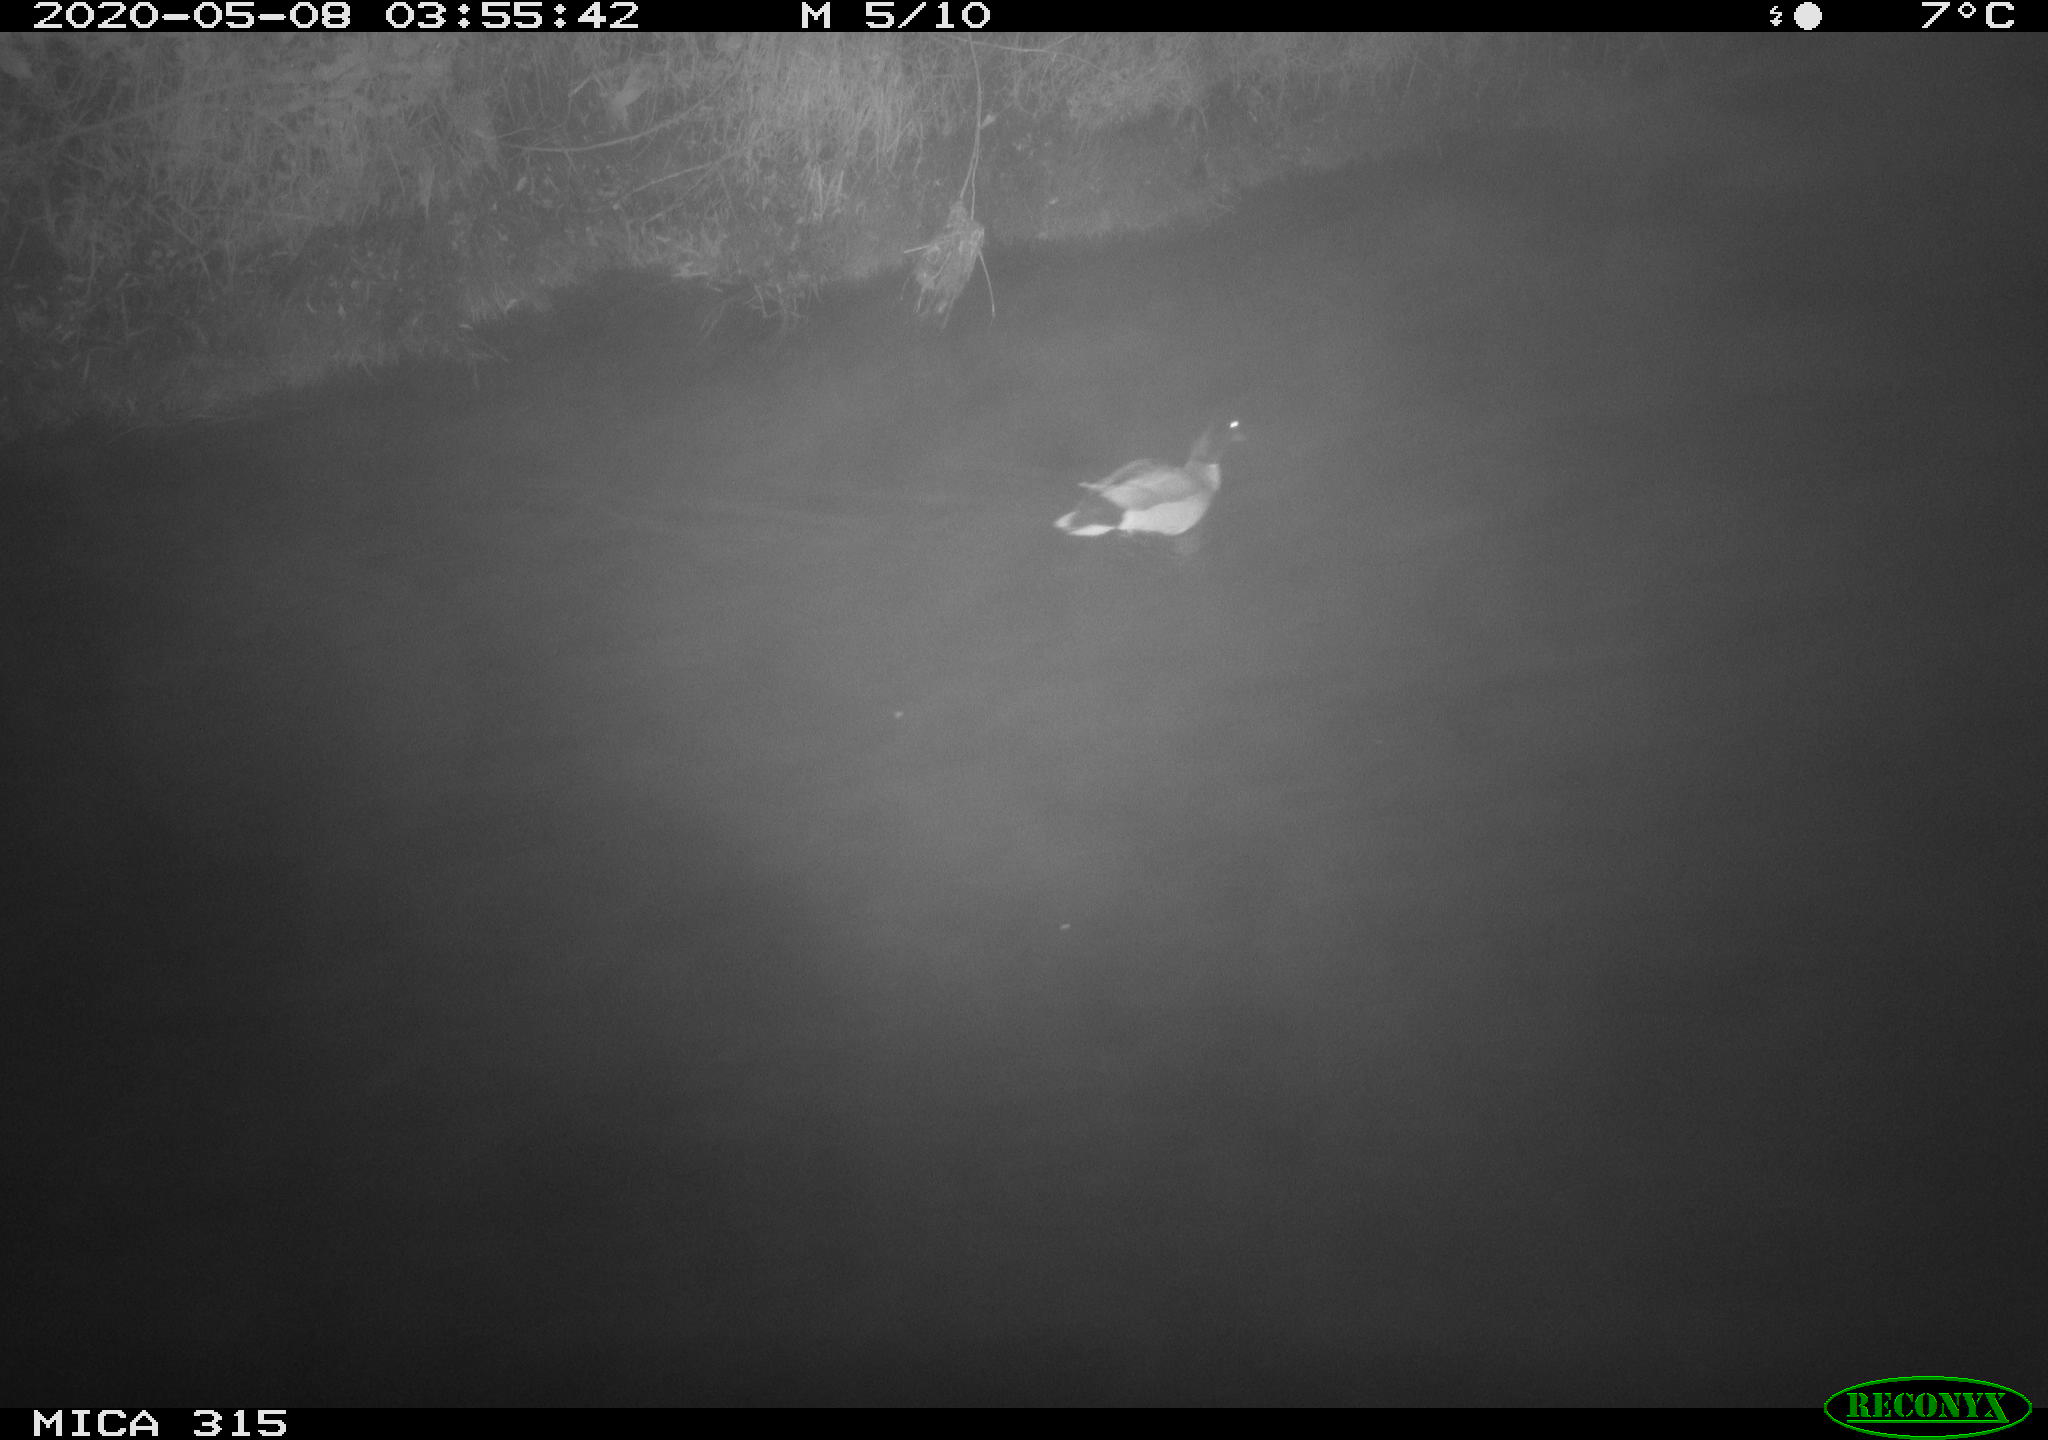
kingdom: Animalia
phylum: Chordata
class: Aves
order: Anseriformes
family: Anatidae
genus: Anas
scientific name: Anas platyrhynchos
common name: Mallard
